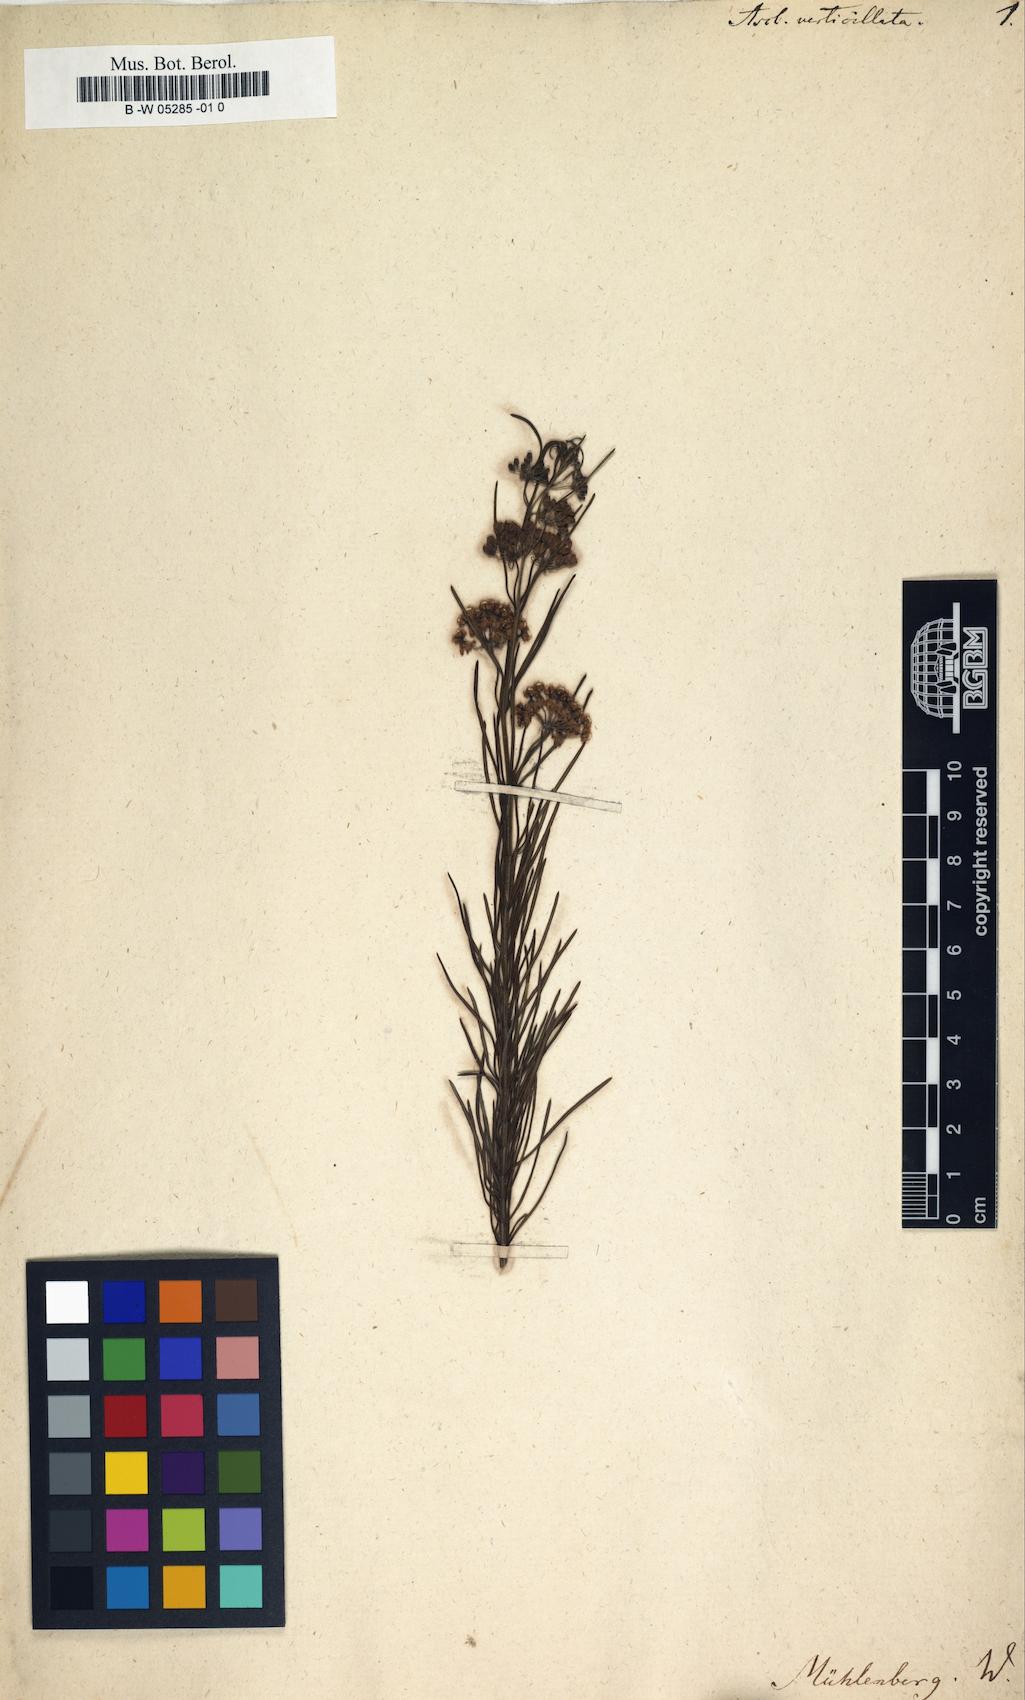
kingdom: Plantae
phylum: Tracheophyta
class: Magnoliopsida
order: Gentianales
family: Apocynaceae
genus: Asclepias
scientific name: Asclepias verticillata
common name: Eastern whorled milkweed
